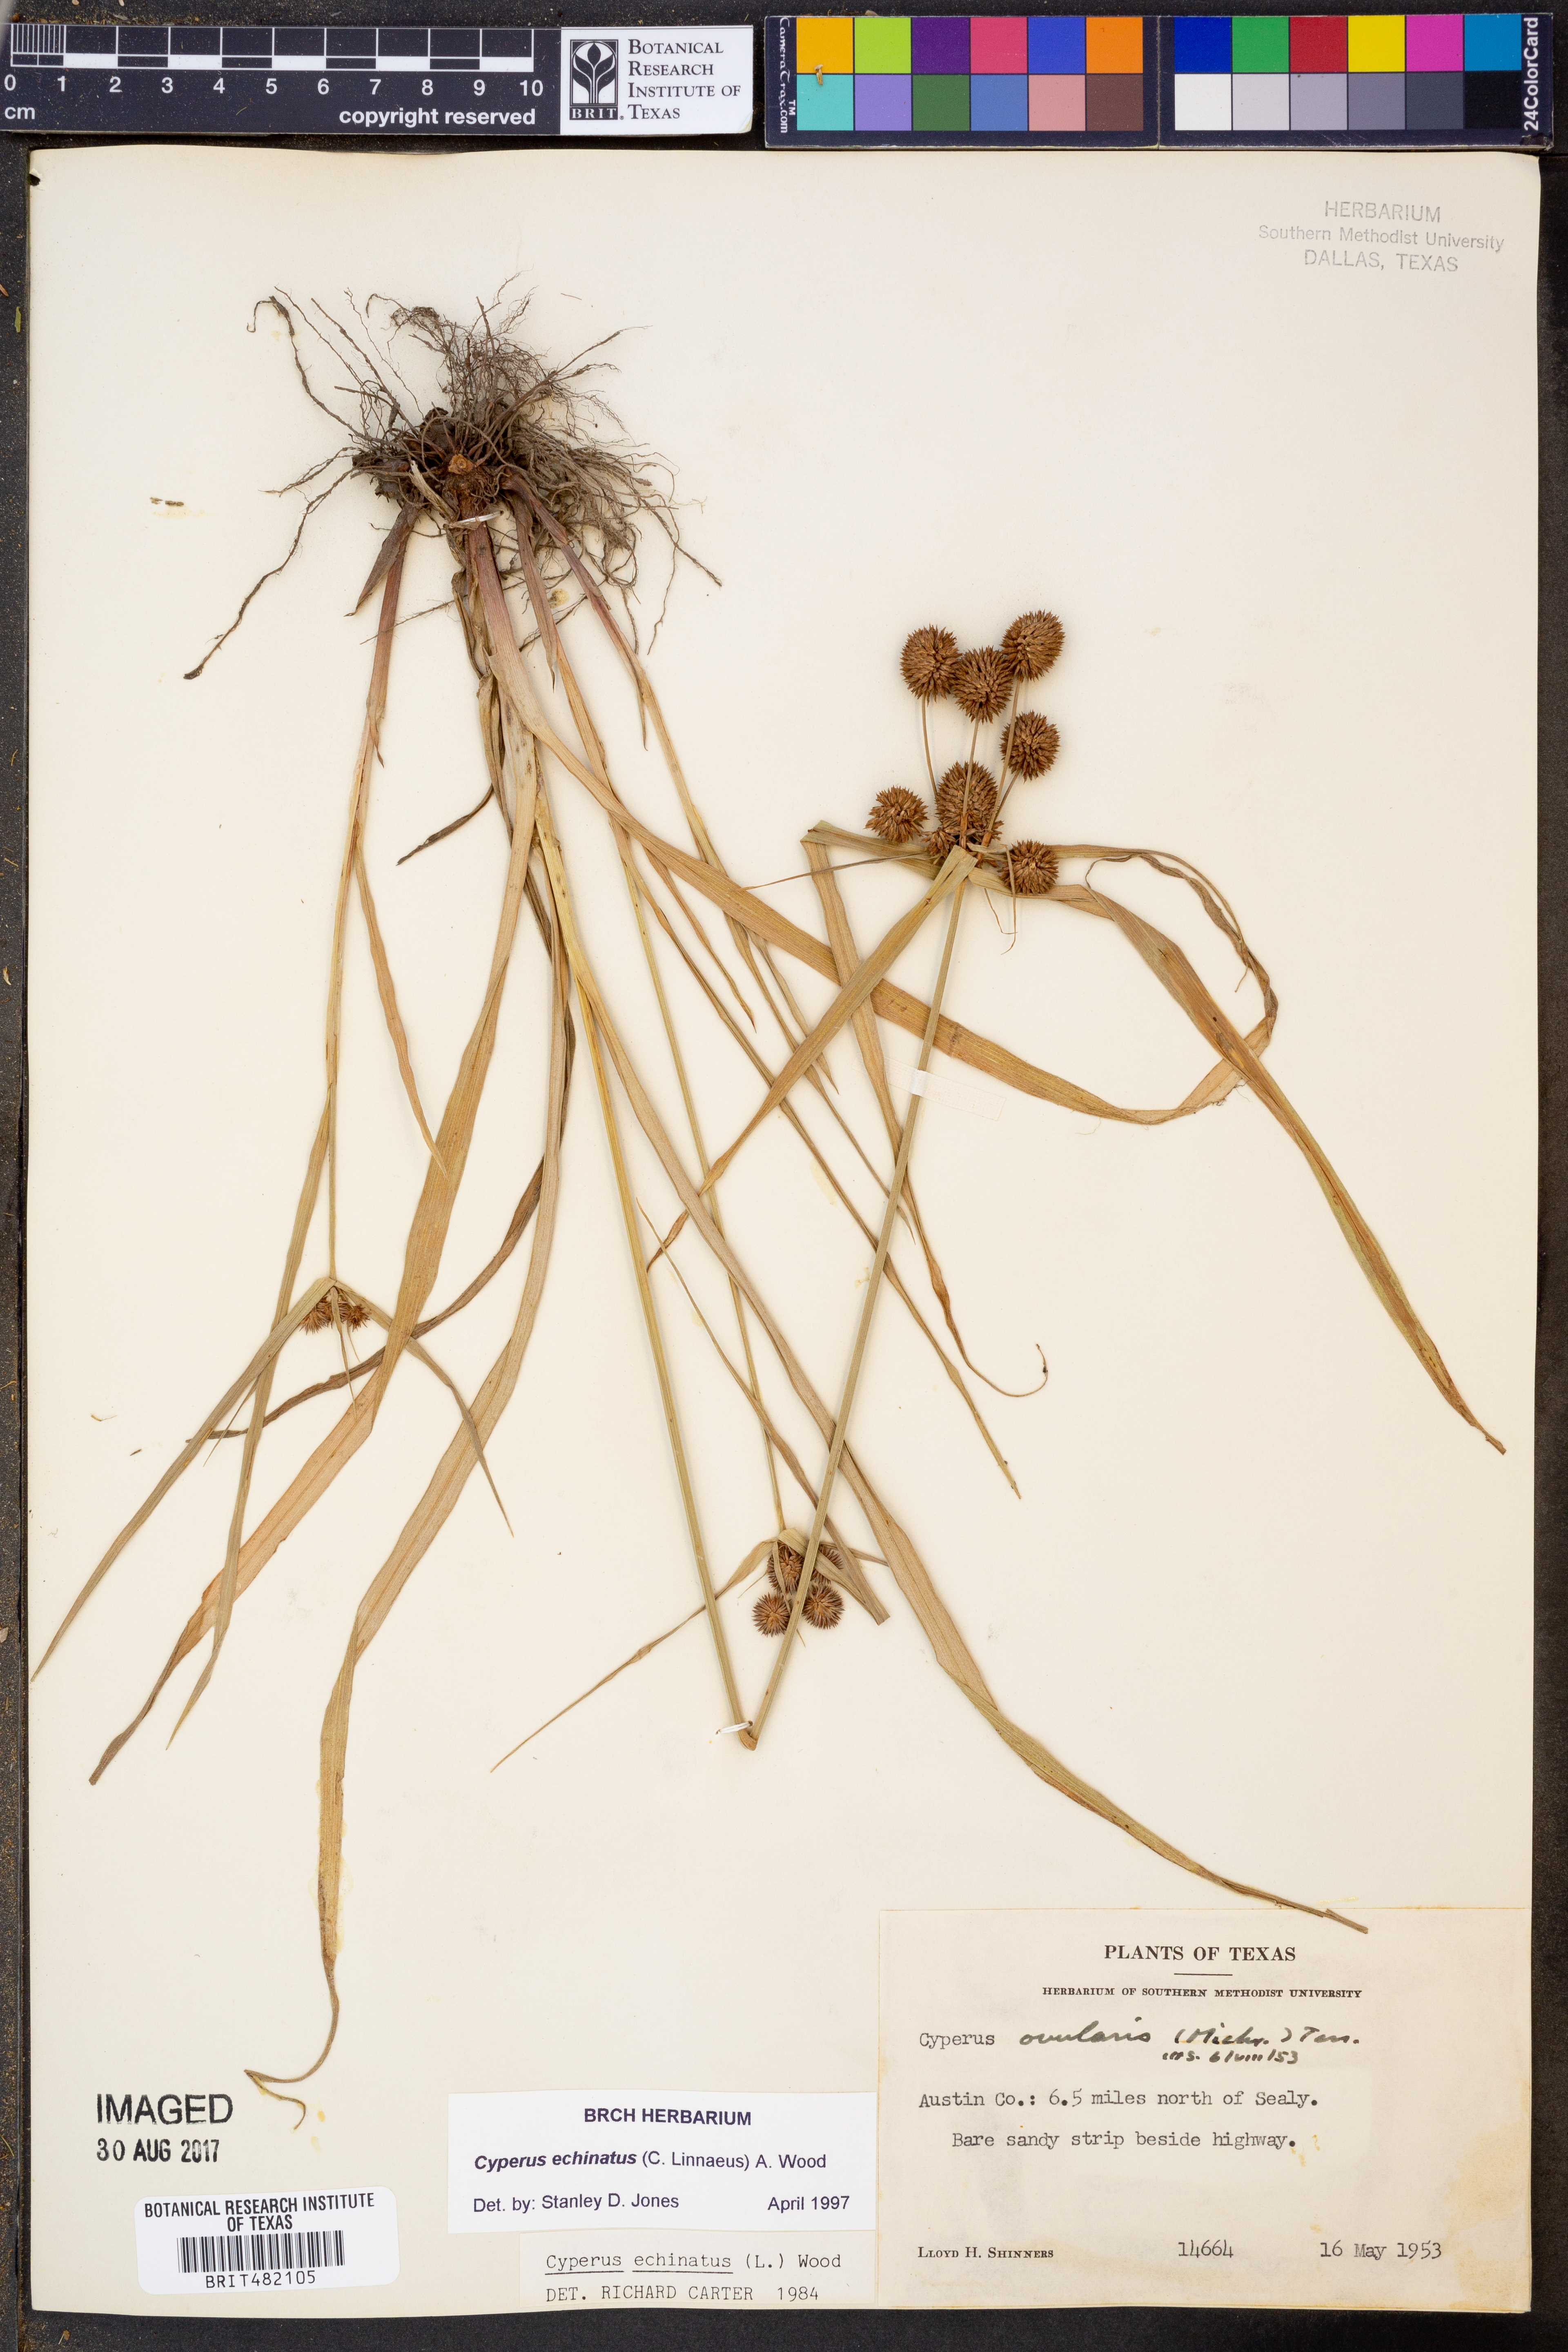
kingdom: Plantae
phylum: Tracheophyta
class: Liliopsida
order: Poales
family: Cyperaceae
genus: Cyperus
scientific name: Cyperus echinatus
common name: Teasel sedge
